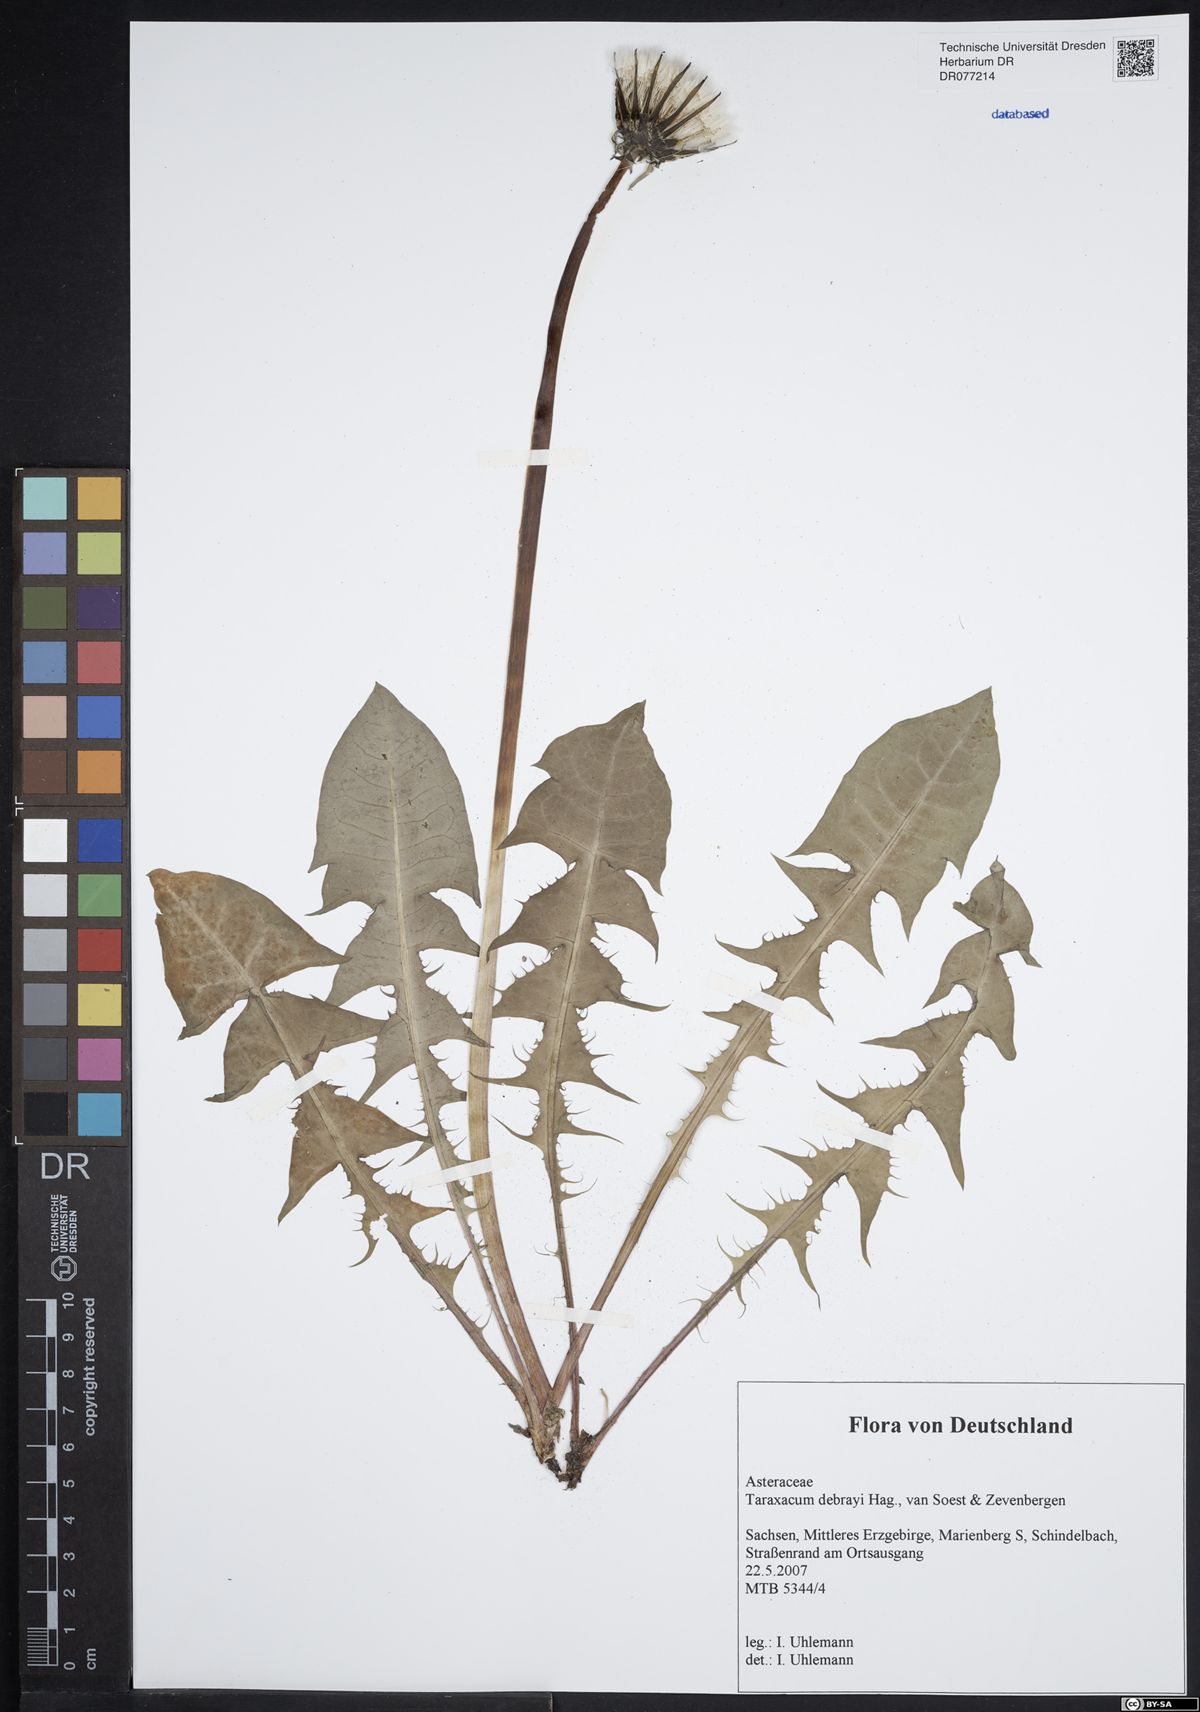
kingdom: Plantae
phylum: Tracheophyta
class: Magnoliopsida
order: Asterales
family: Asteraceae
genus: Taraxacum
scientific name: Taraxacum debrayi
